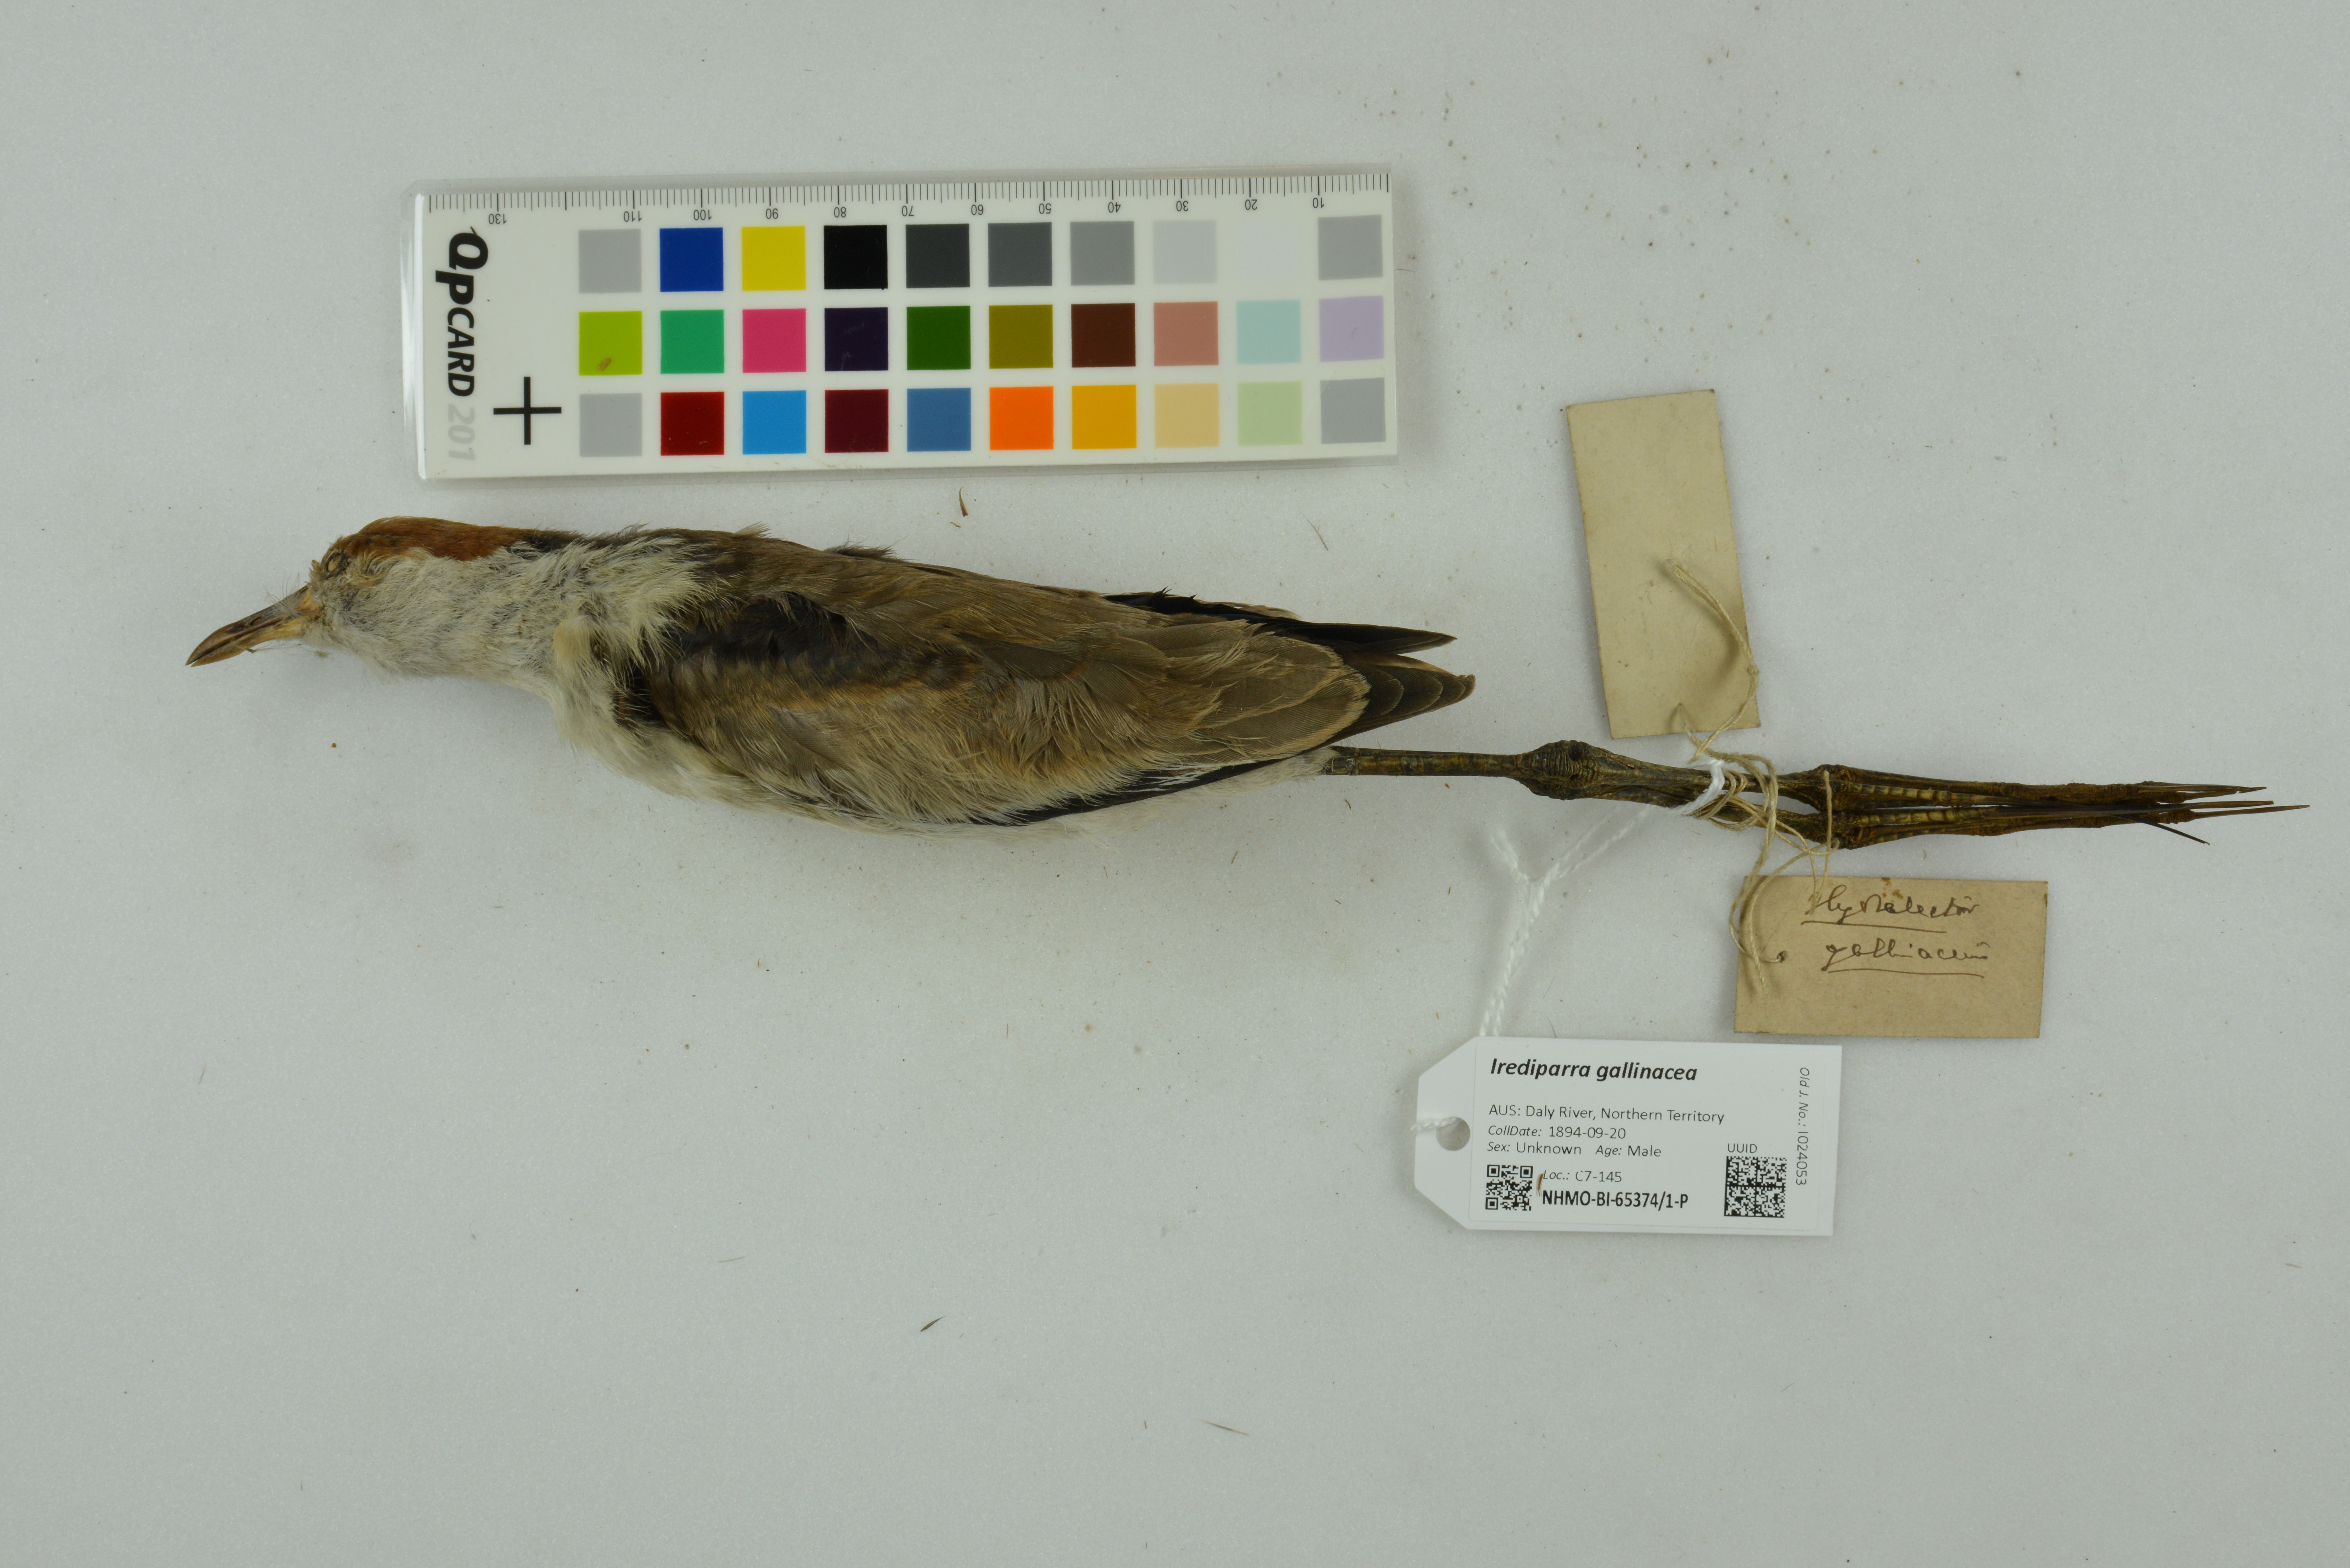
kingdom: Animalia
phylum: Chordata
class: Aves
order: Charadriiformes
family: Jacanidae
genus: Irediparra
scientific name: Irediparra gallinacea
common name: Comb-crested jacana
